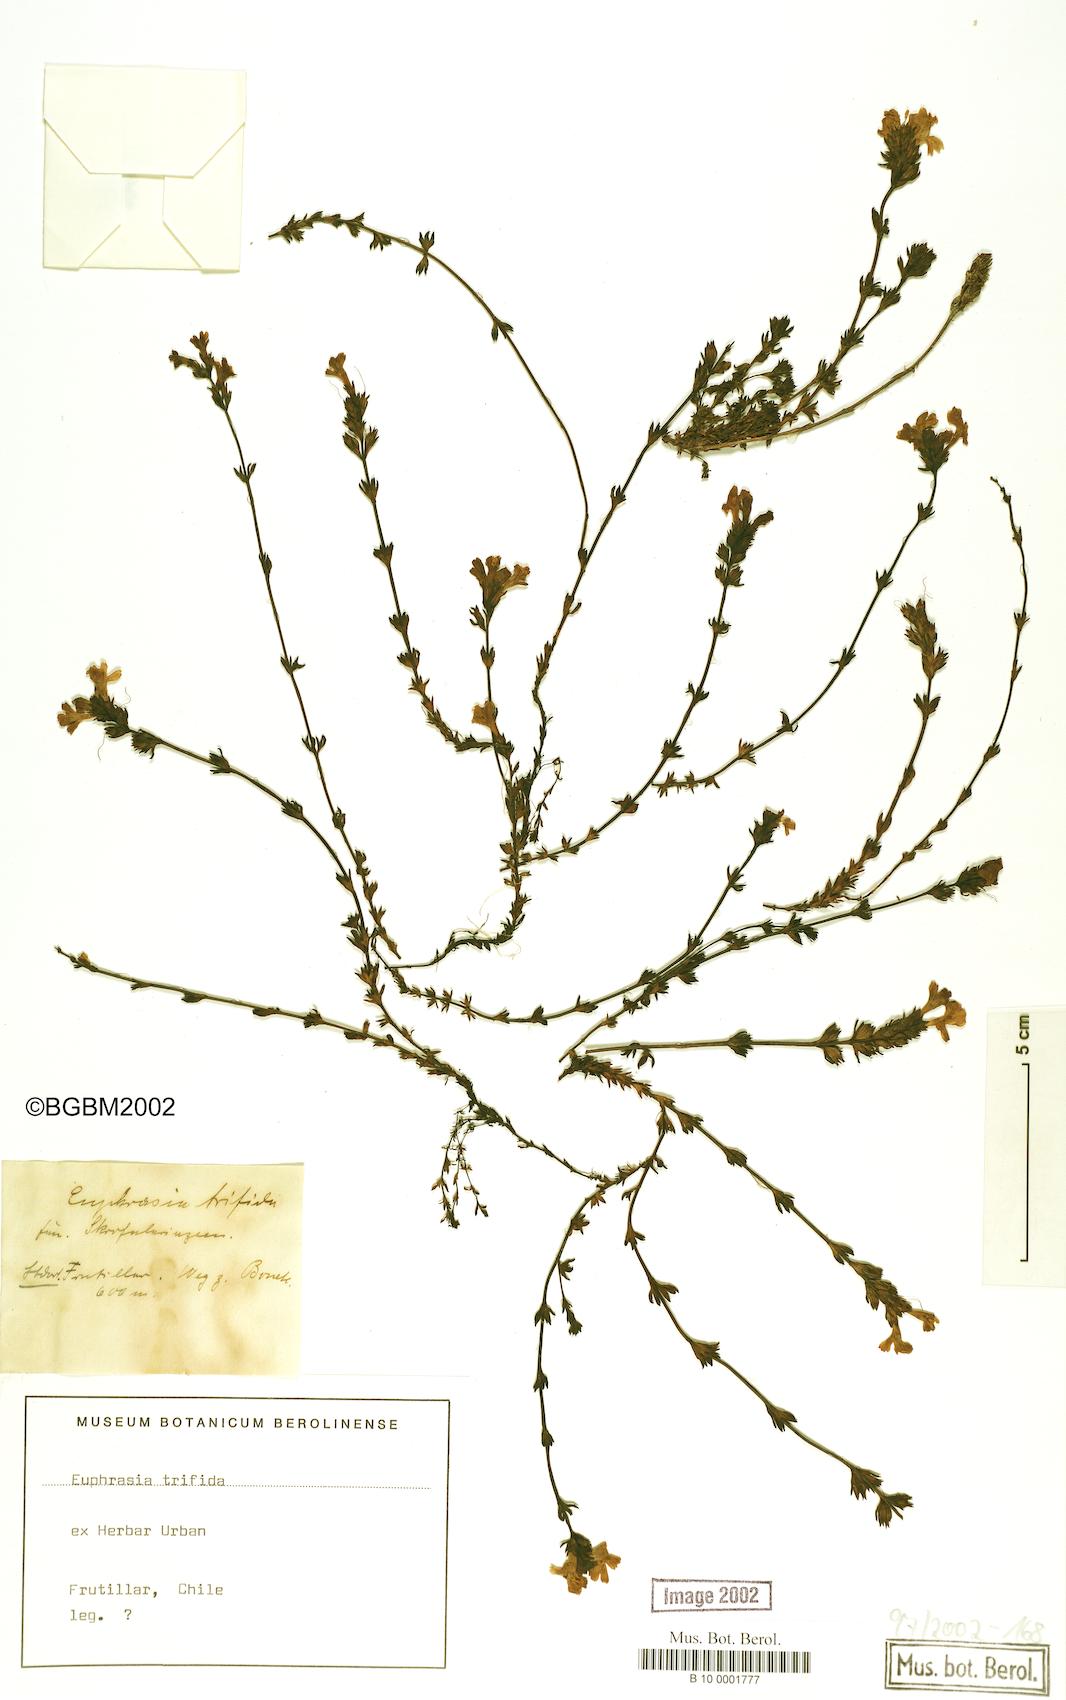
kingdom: Plantae
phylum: Tracheophyta
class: Magnoliopsida
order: Lamiales
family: Orobanchaceae
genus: Euphrasia
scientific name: Euphrasia trifida
